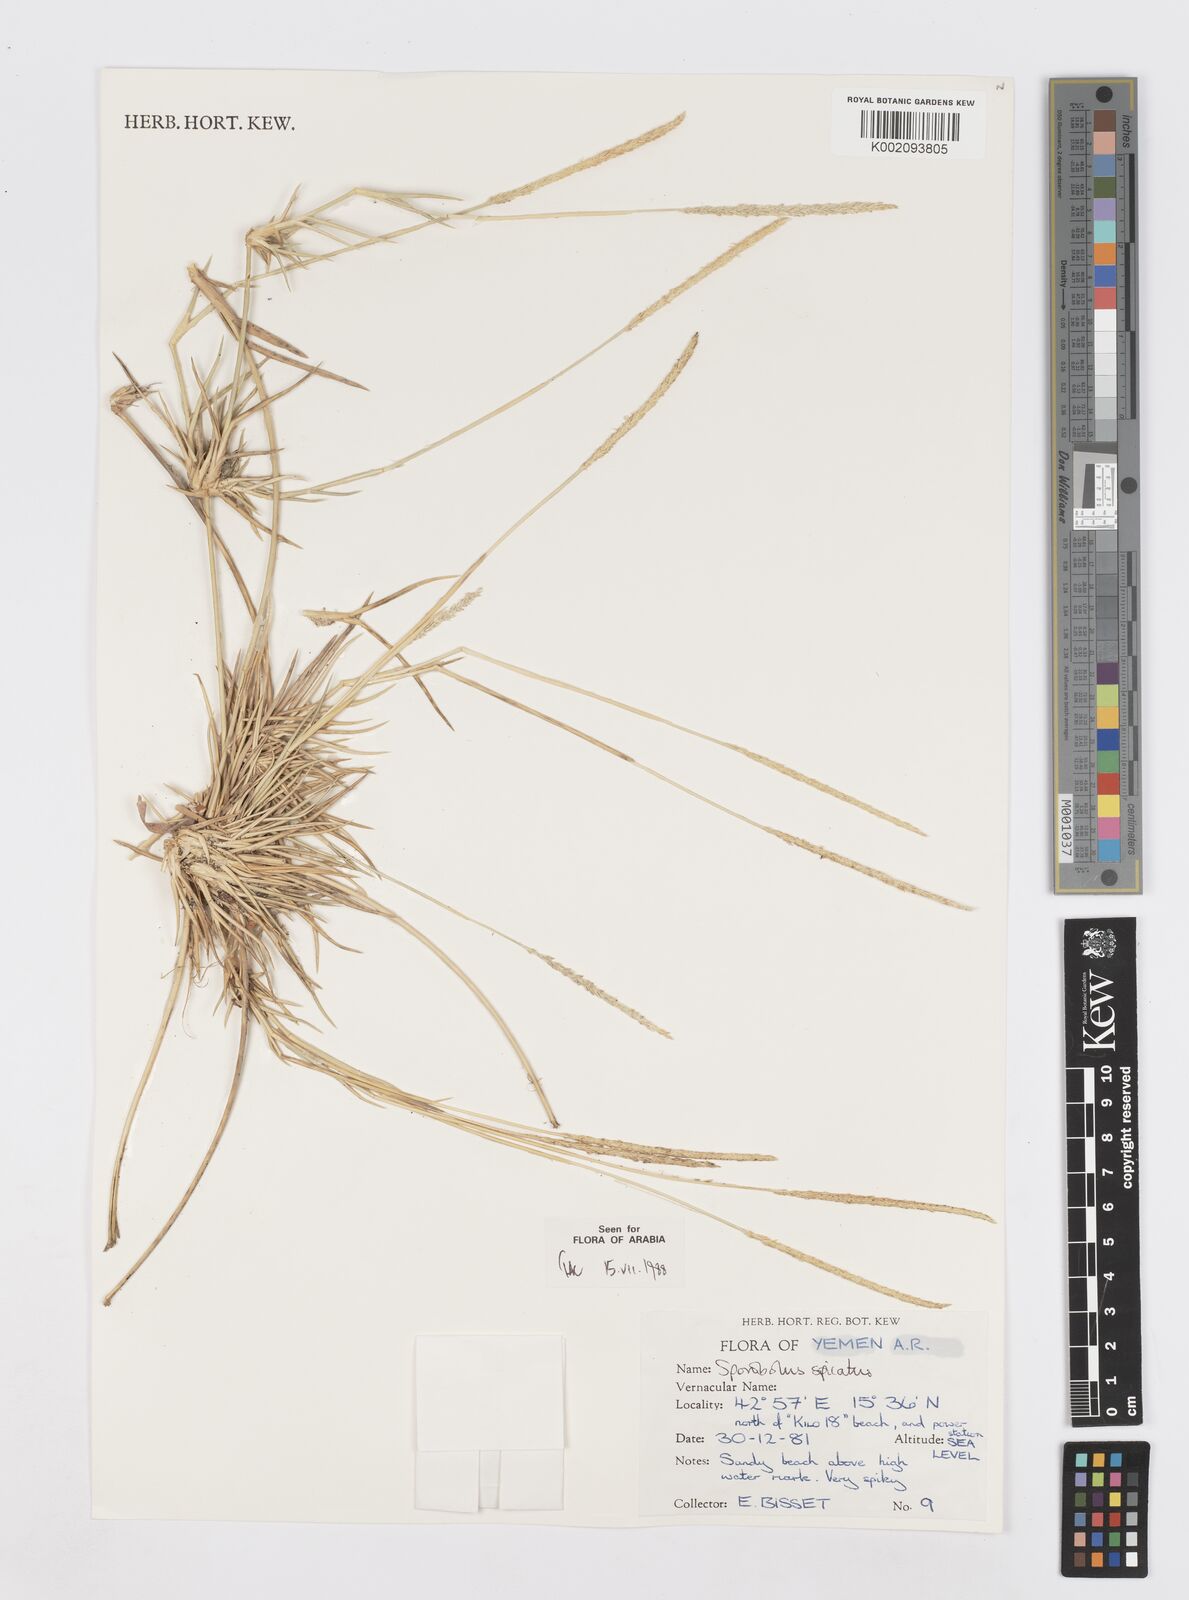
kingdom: Plantae
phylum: Tracheophyta
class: Liliopsida
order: Poales
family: Poaceae
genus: Sporobolus
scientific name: Sporobolus spicatus
